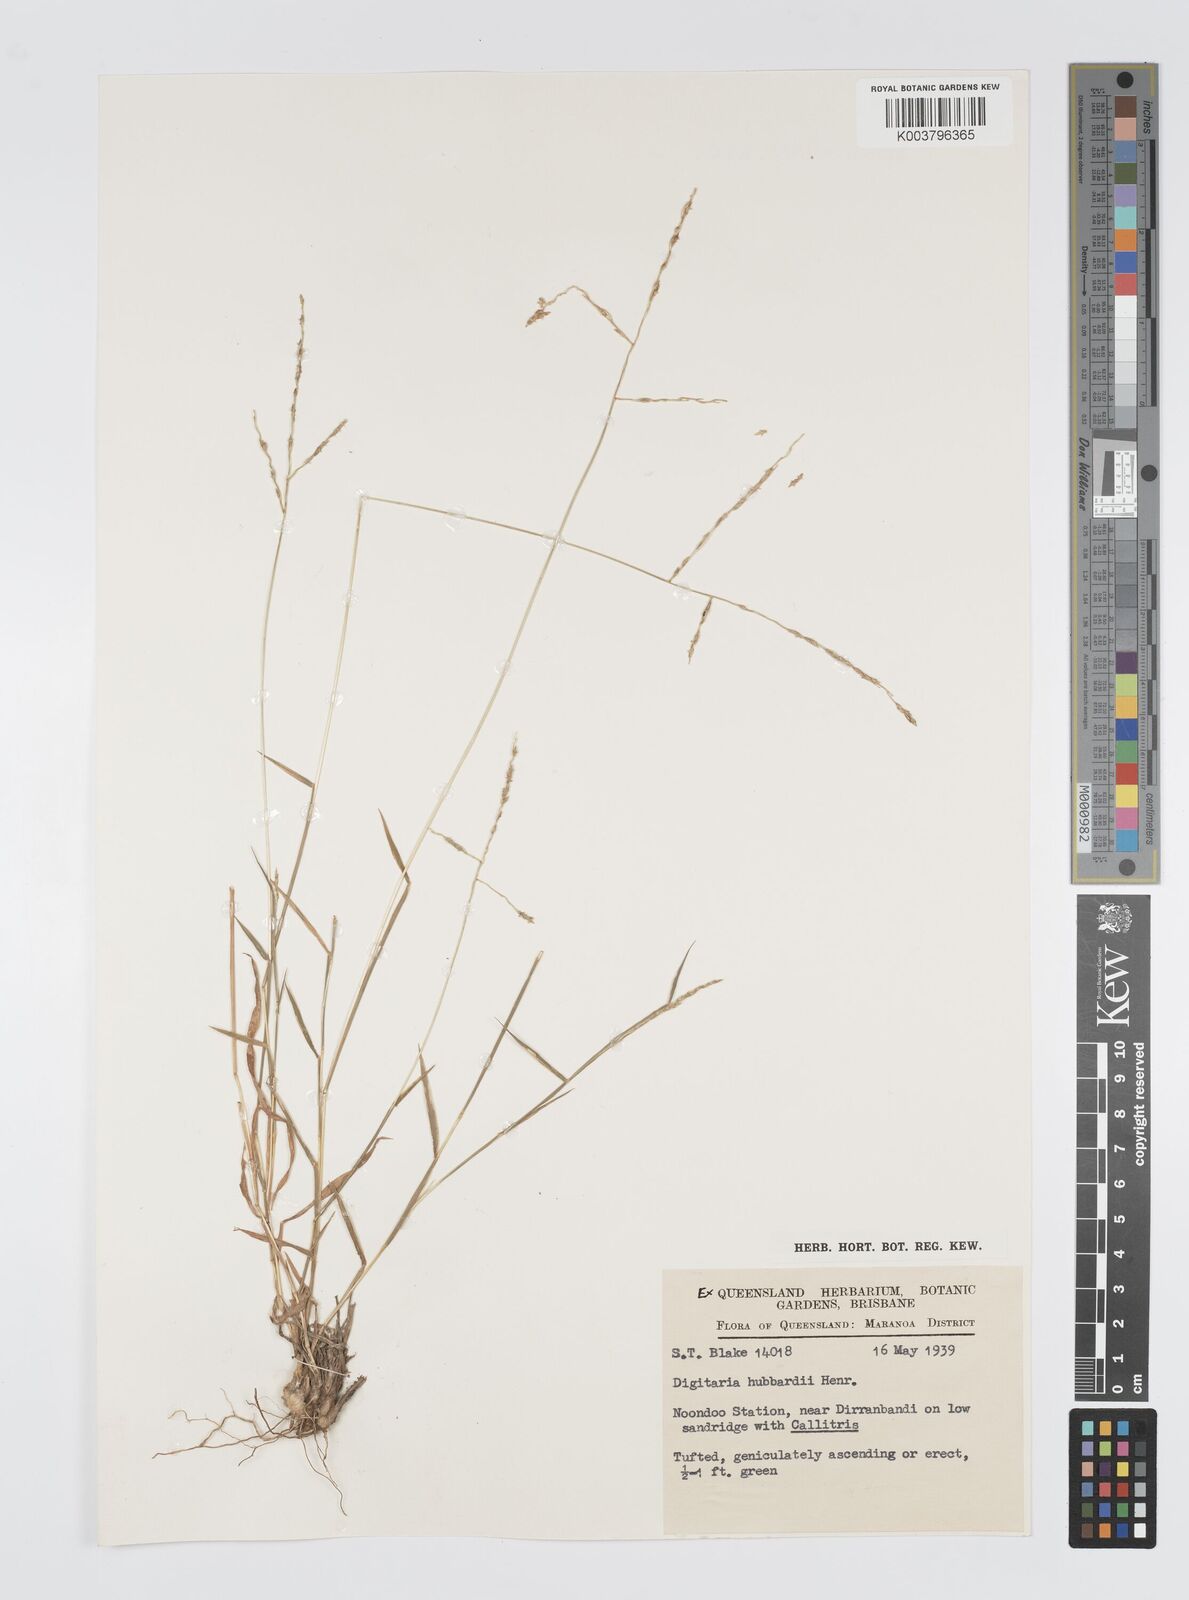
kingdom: Plantae
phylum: Tracheophyta
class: Liliopsida
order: Poales
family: Poaceae
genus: Digitaria
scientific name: Digitaria hubbardii
